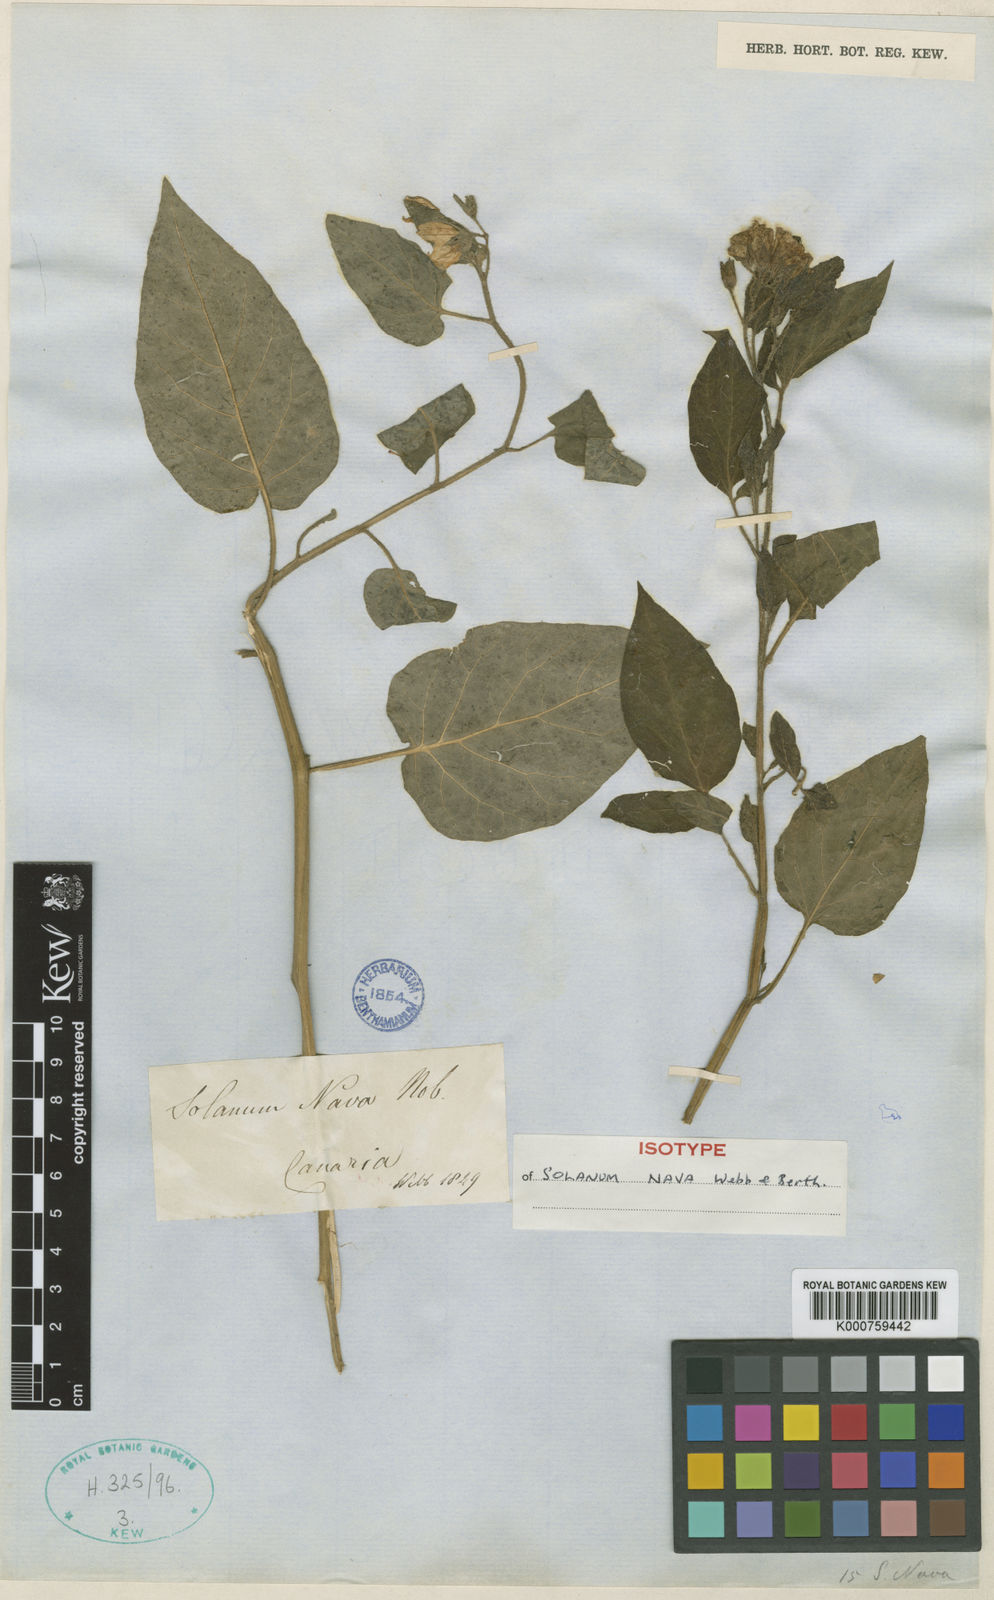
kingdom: Plantae
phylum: Tracheophyta
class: Magnoliopsida
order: Solanales
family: Solanaceae
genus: Solanum
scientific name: Solanum nava
